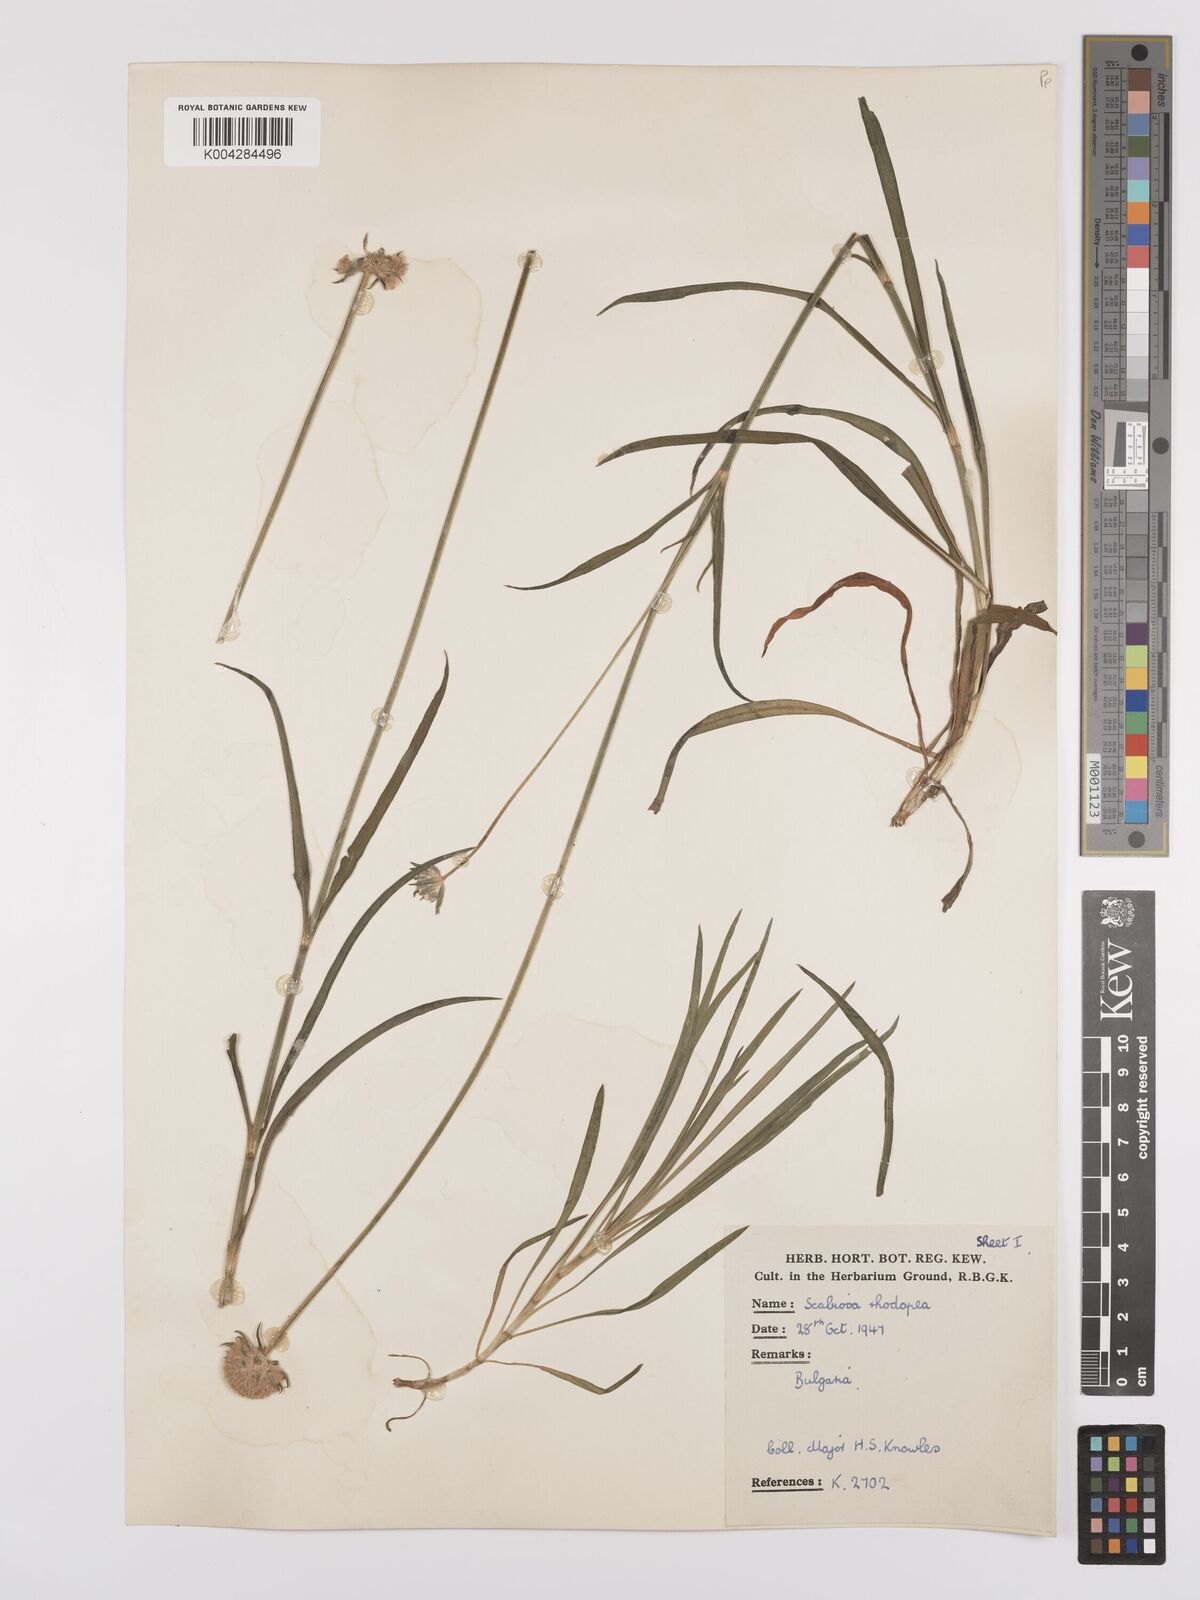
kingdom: Plantae
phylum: Tracheophyta
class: Magnoliopsida
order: Dipsacales
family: Caprifoliaceae
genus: Scabiosa
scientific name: Scabiosa ochroleuca
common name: Cream pincushions
